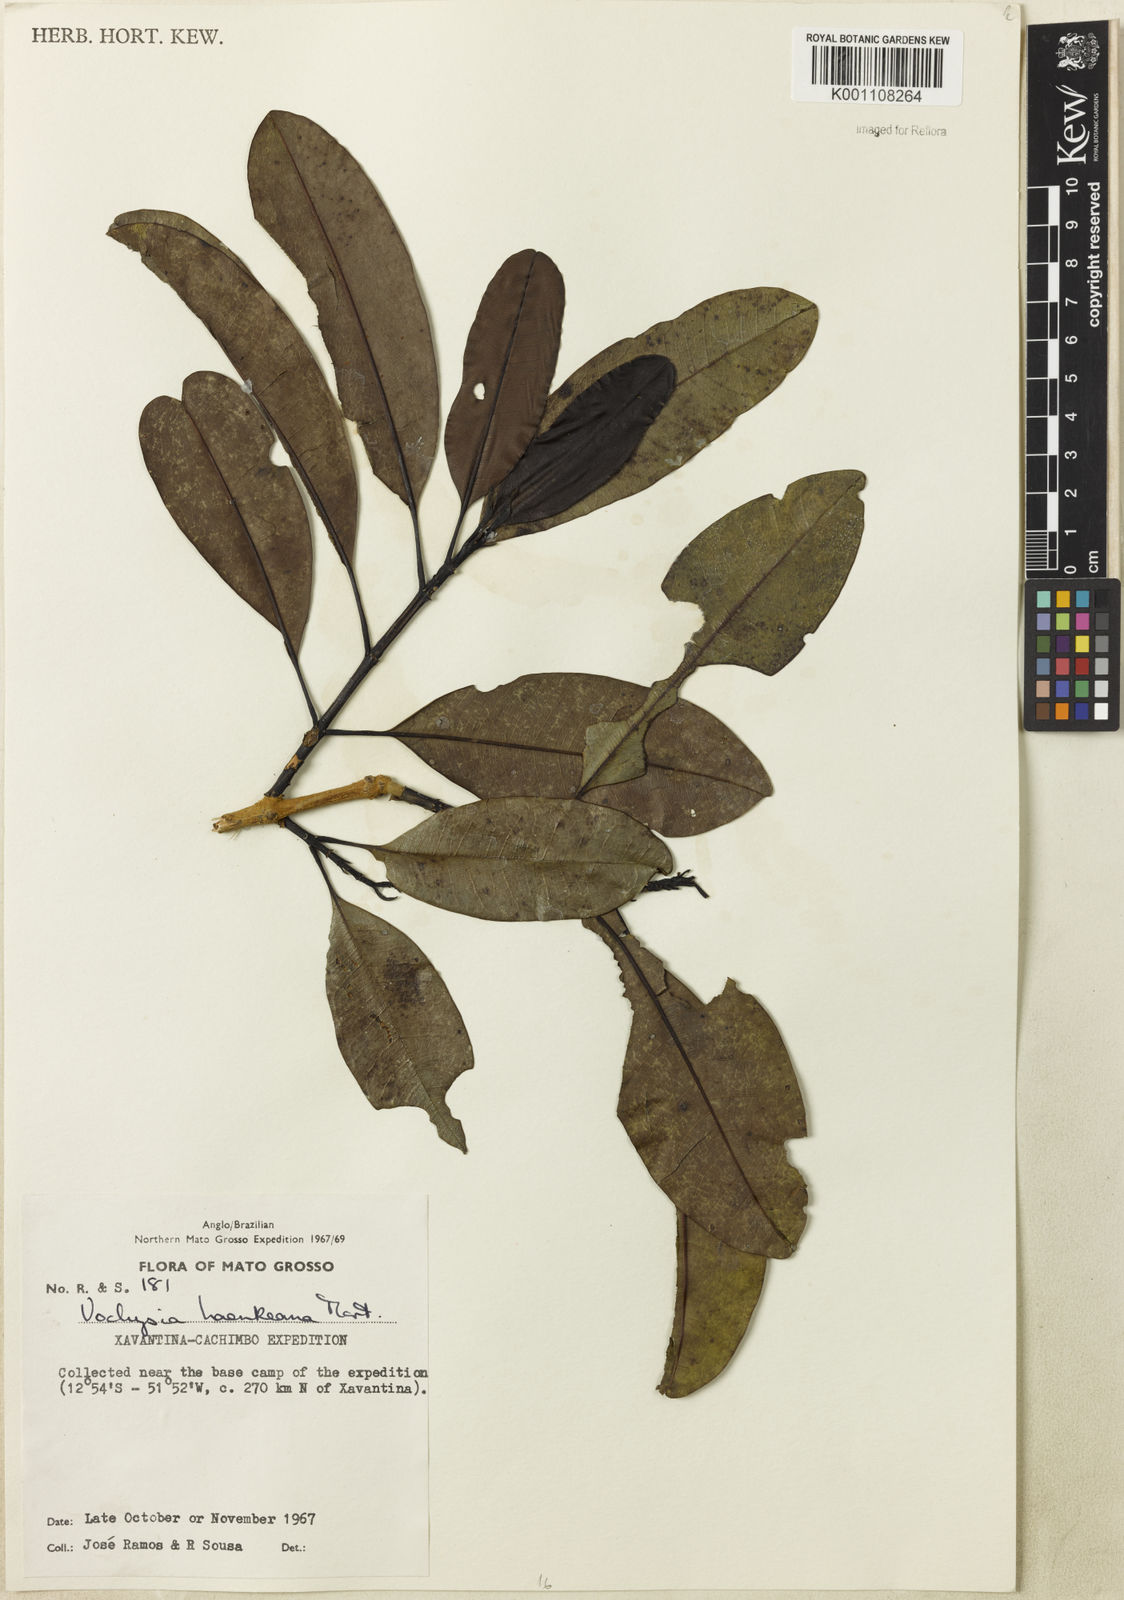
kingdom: Plantae
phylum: Tracheophyta
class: Magnoliopsida
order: Myrtales
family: Vochysiaceae
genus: Vochysia
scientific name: Vochysia haenkeana
